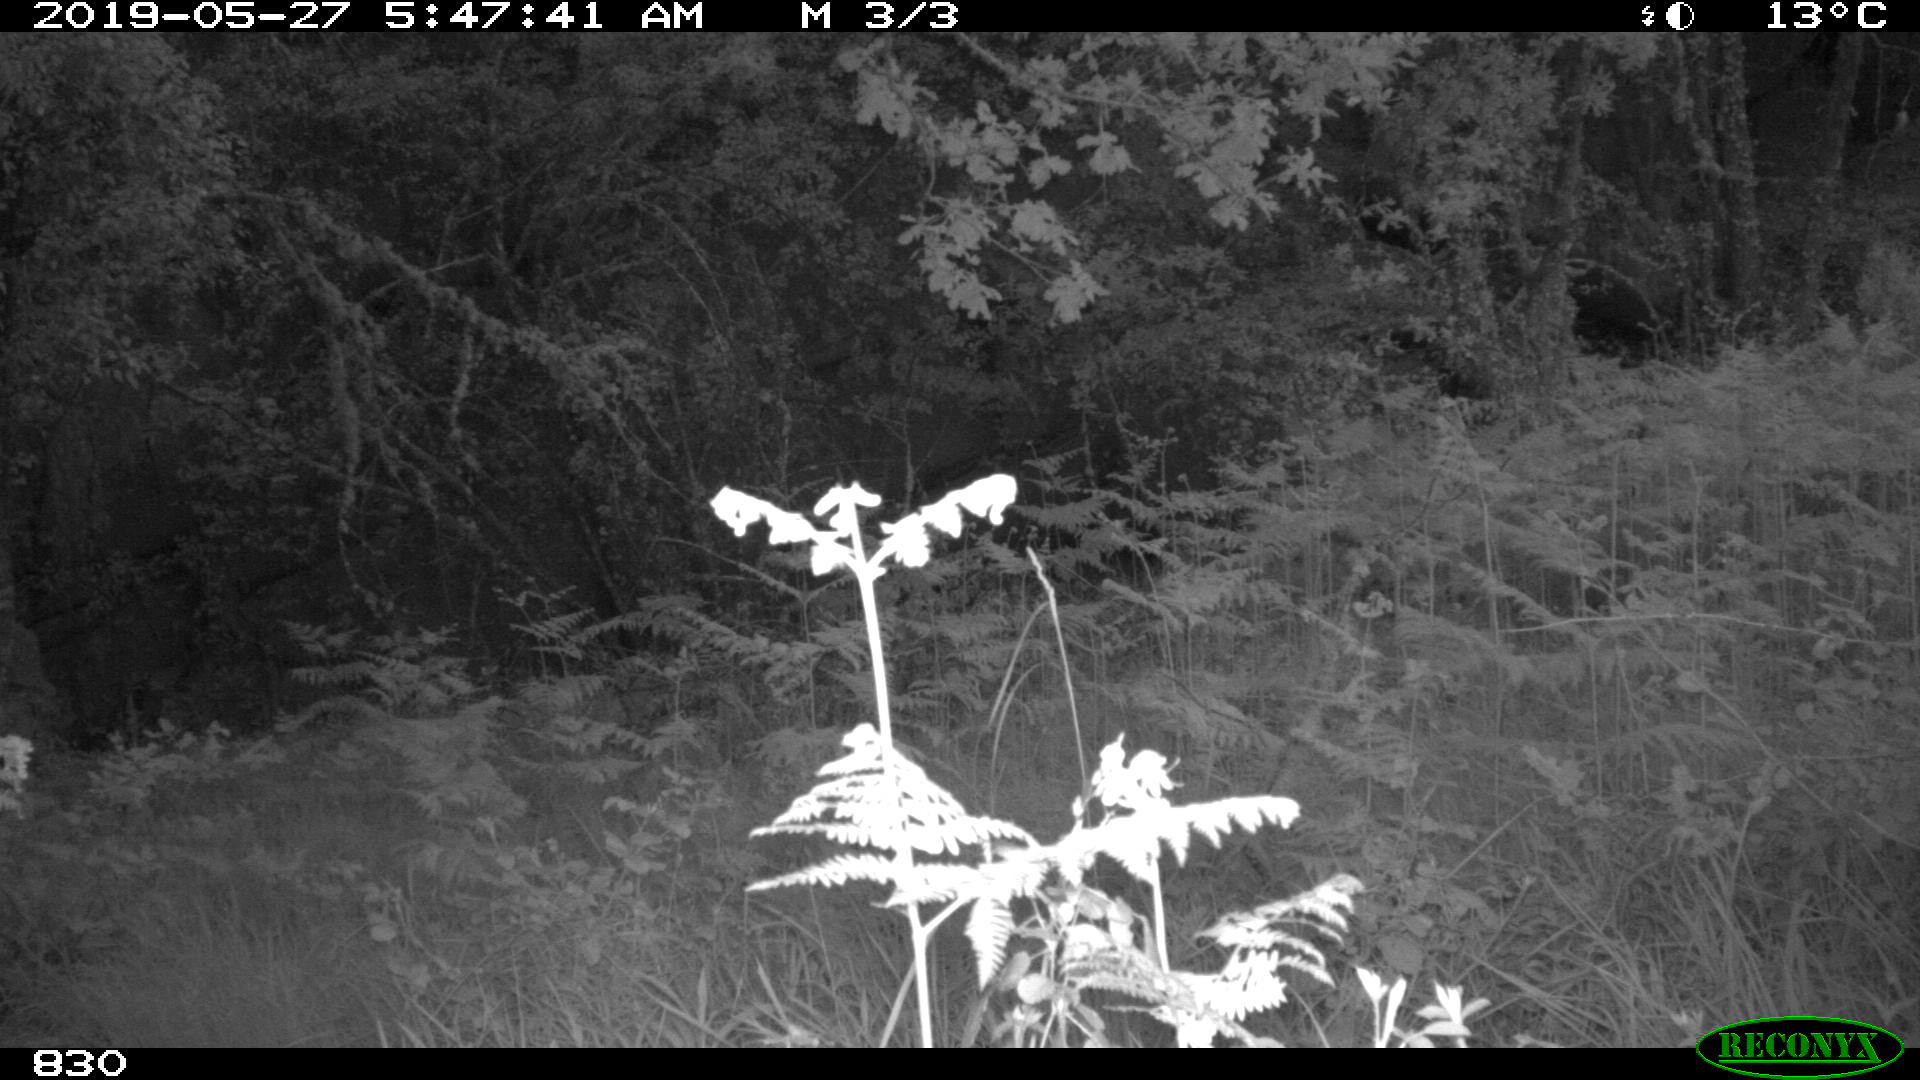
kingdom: Animalia
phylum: Chordata
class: Mammalia
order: Artiodactyla
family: Suidae
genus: Sus
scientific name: Sus scrofa
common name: Wild boar
